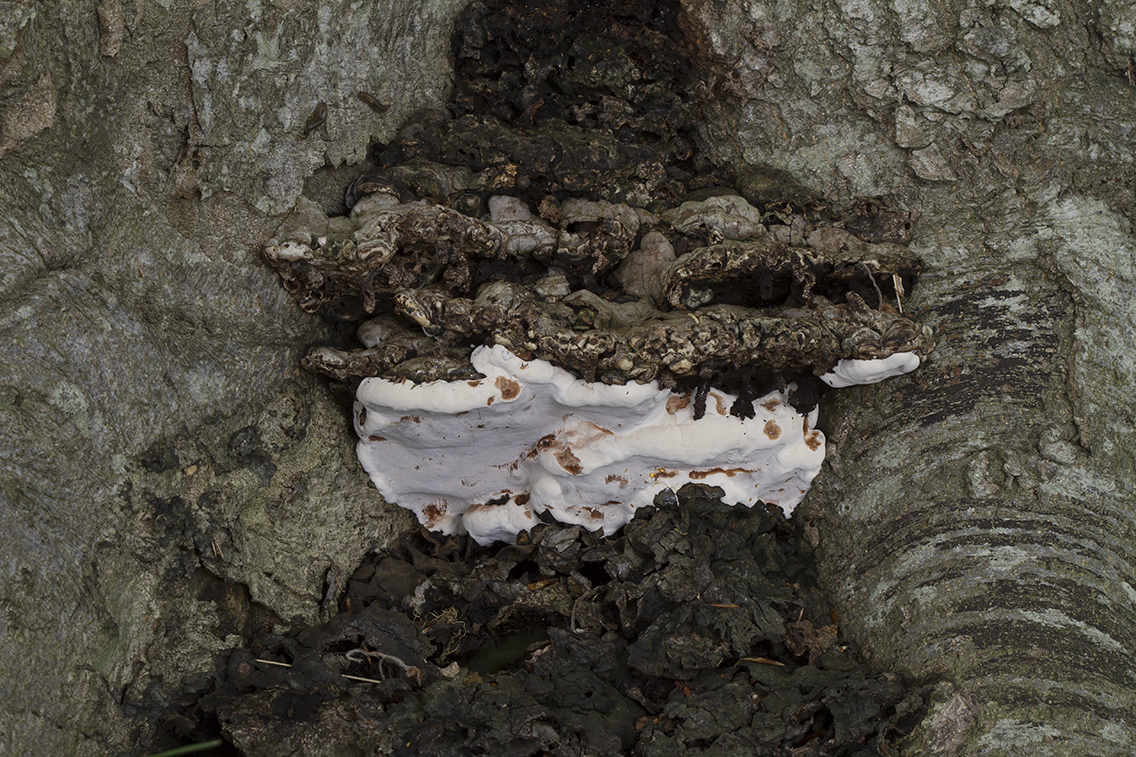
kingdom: Fungi
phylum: Basidiomycota
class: Agaricomycetes
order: Polyporales
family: Polyporaceae
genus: Ganoderma
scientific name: Ganoderma adspersum
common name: grov lakporesvamp
